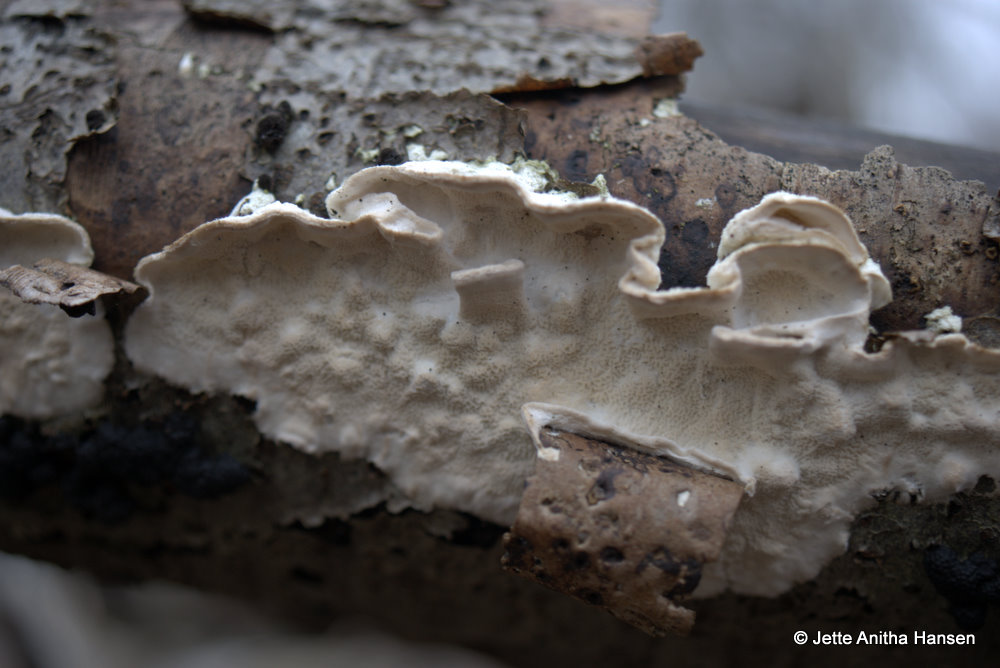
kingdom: Fungi
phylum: Basidiomycota
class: Agaricomycetes
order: Polyporales
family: Irpicaceae
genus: Byssomerulius
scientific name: Byssomerulius corium
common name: læder-åresvamp
